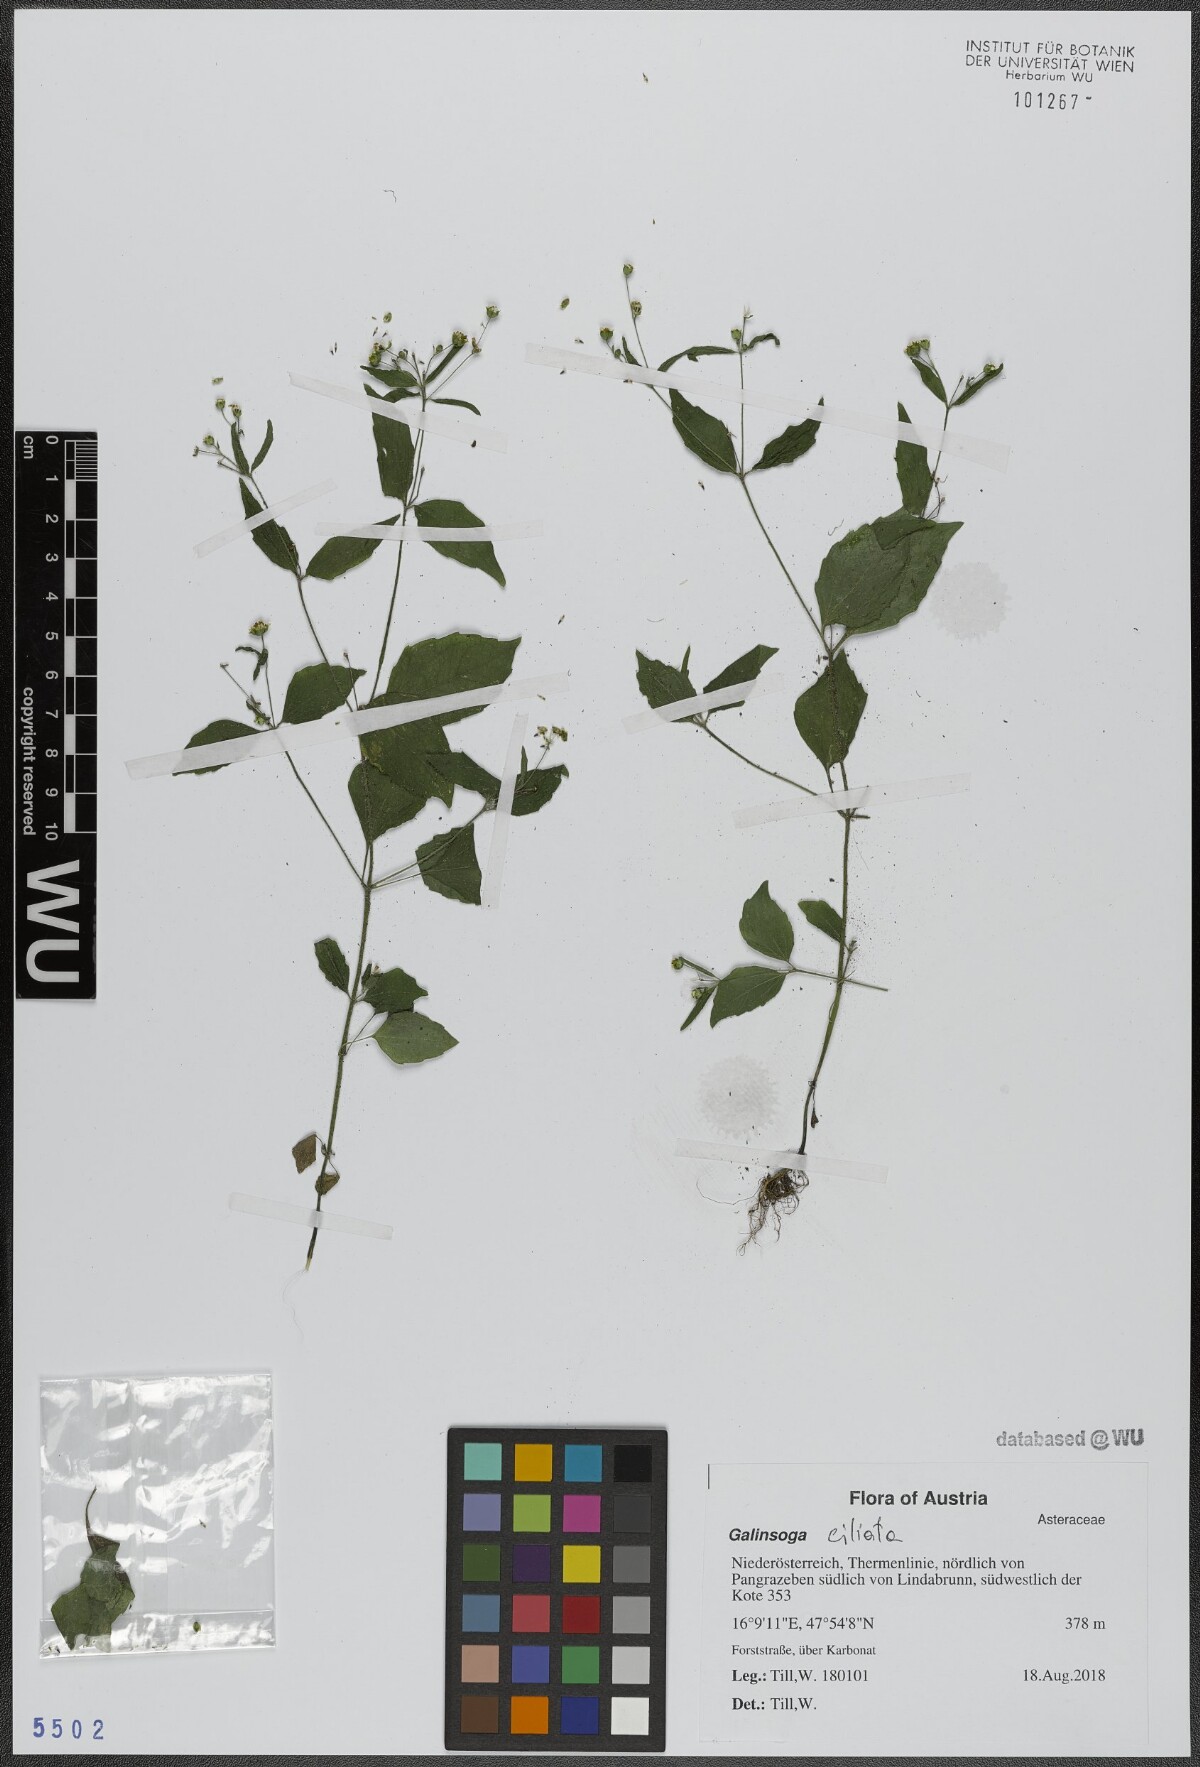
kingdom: Plantae
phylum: Tracheophyta
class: Magnoliopsida
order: Asterales
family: Asteraceae
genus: Galinsoga
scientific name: Galinsoga quadriradiata
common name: Shaggy soldier
